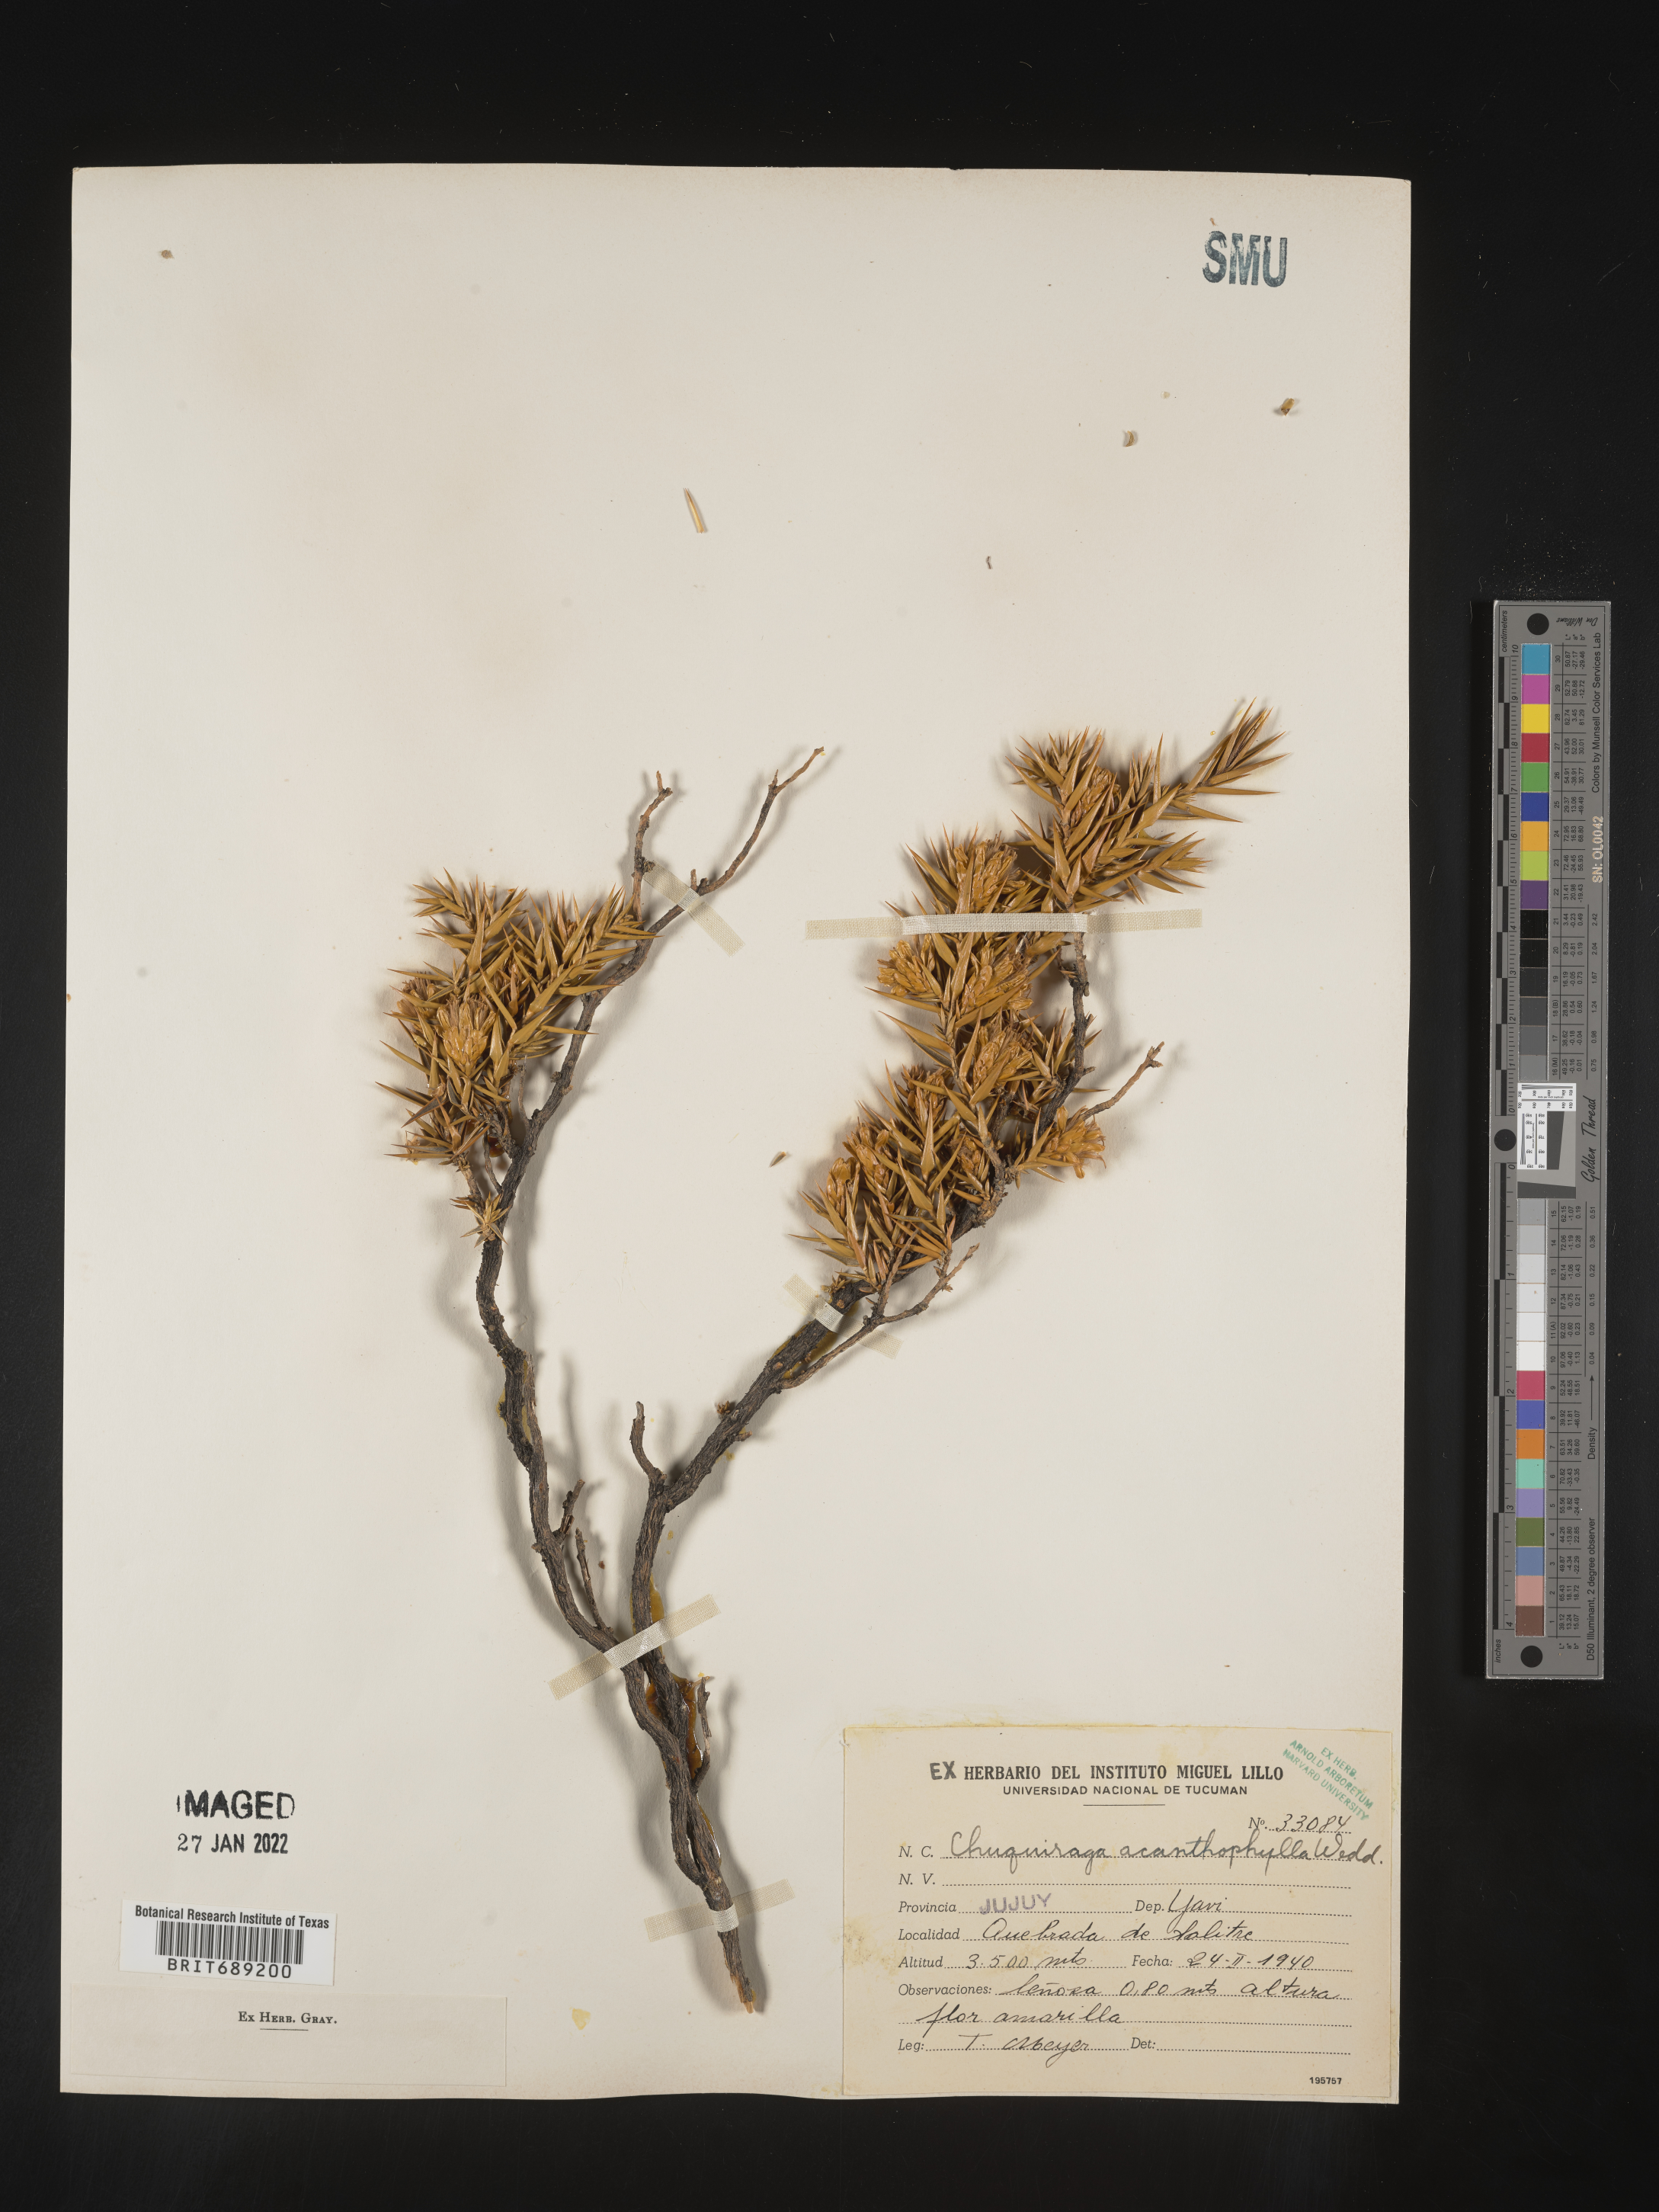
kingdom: Plantae
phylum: Tracheophyta
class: Magnoliopsida
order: Asterales
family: Asteraceae
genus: Chuquiraga
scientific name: Chuquiraga
